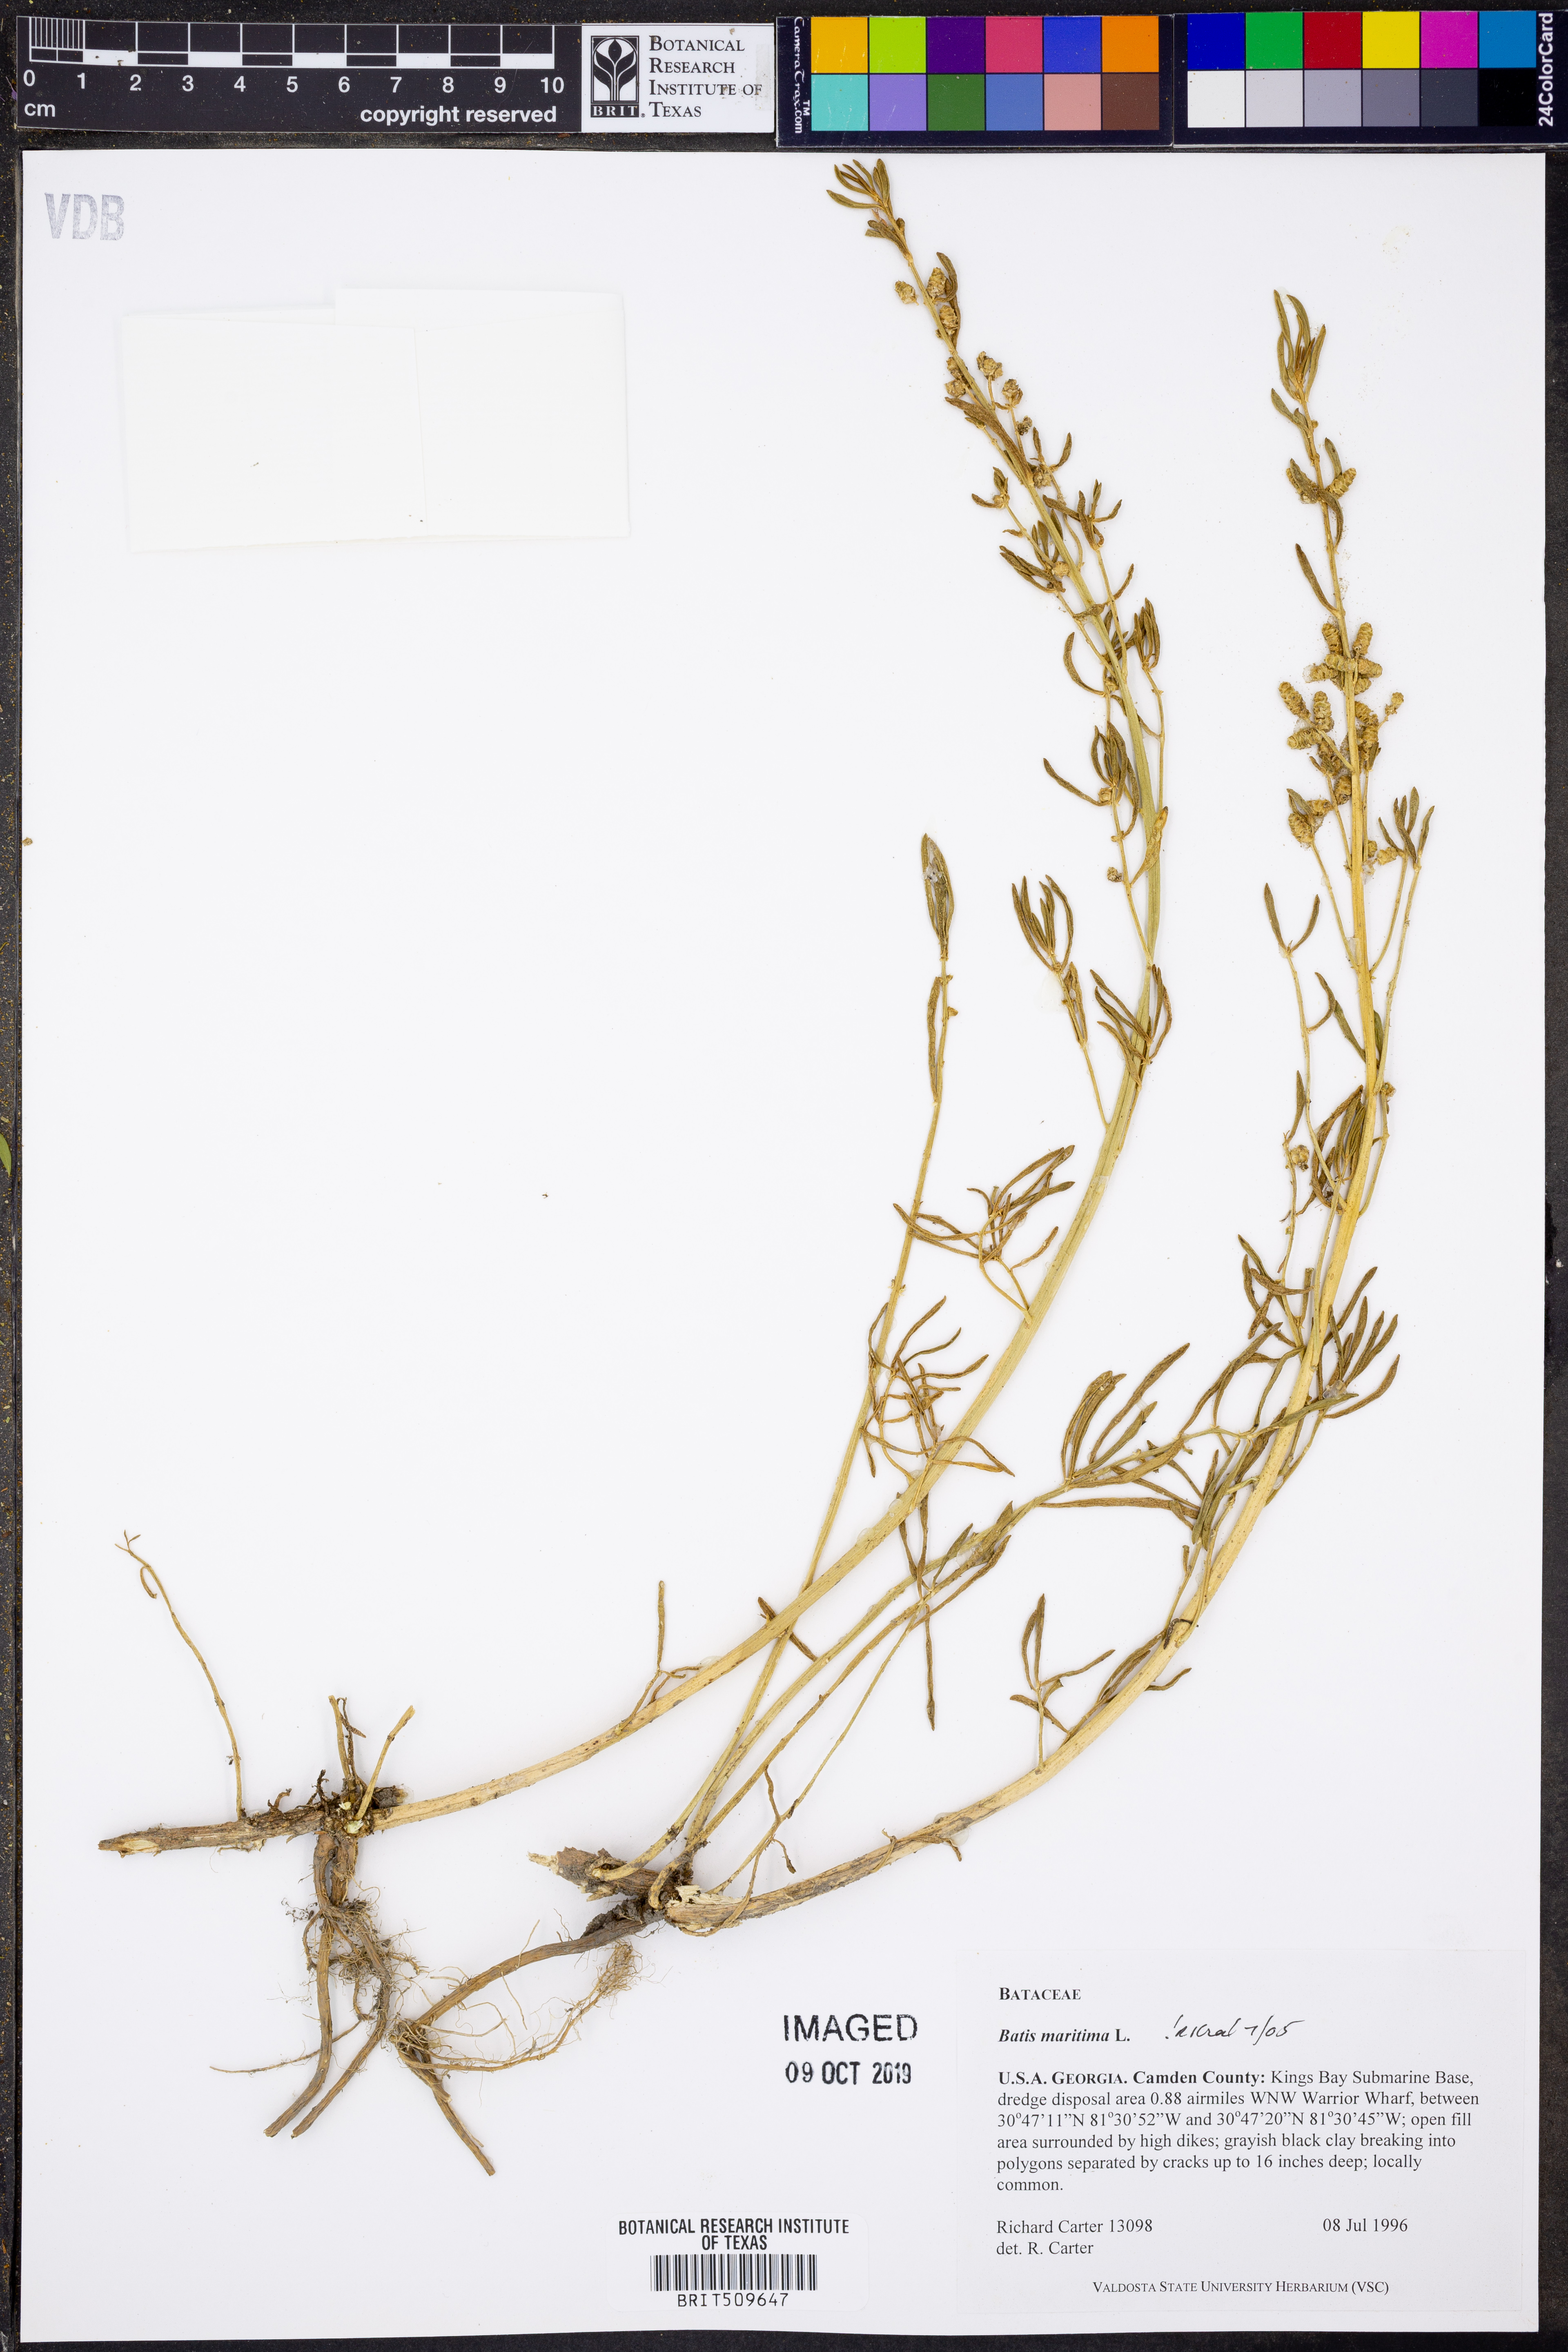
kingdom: Plantae
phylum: Tracheophyta
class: Magnoliopsida
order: Brassicales
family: Bataceae
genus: Batis
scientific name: Batis maritima
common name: Turtleweed
